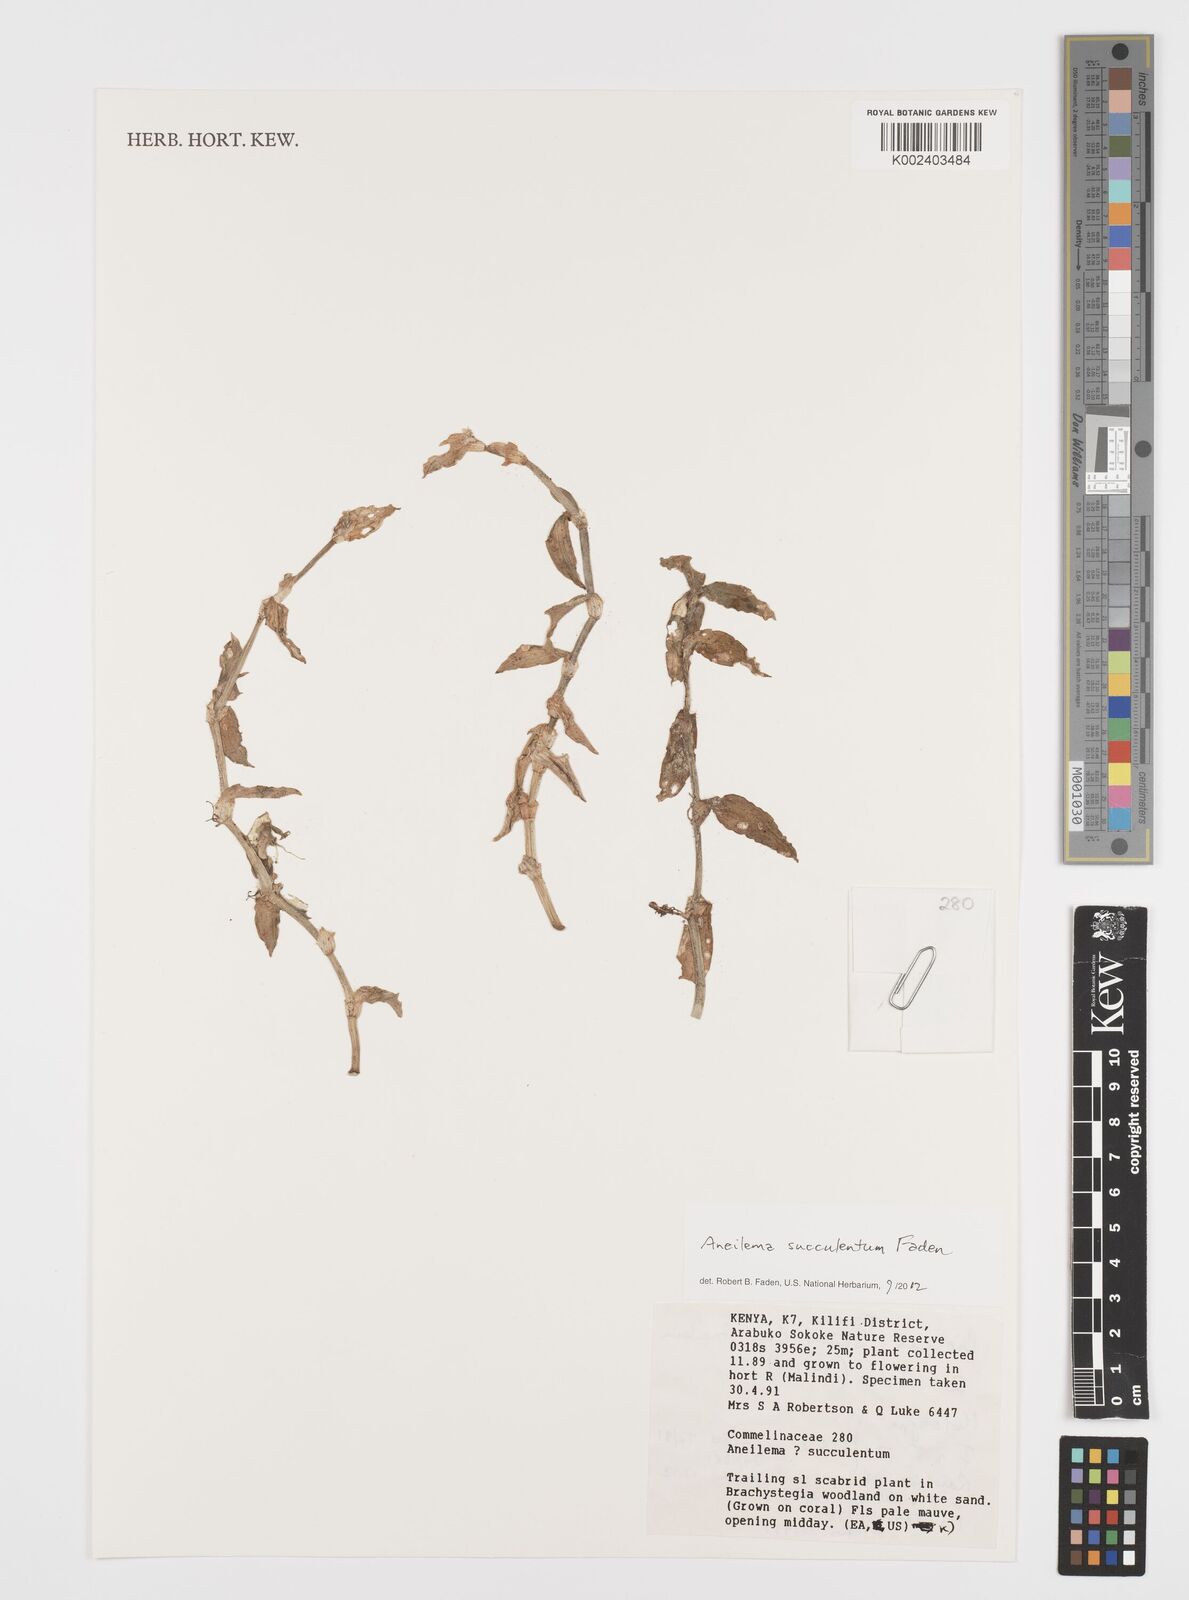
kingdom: Plantae
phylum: Tracheophyta
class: Liliopsida
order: Commelinales
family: Commelinaceae
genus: Aneilema
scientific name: Aneilema succulentum
